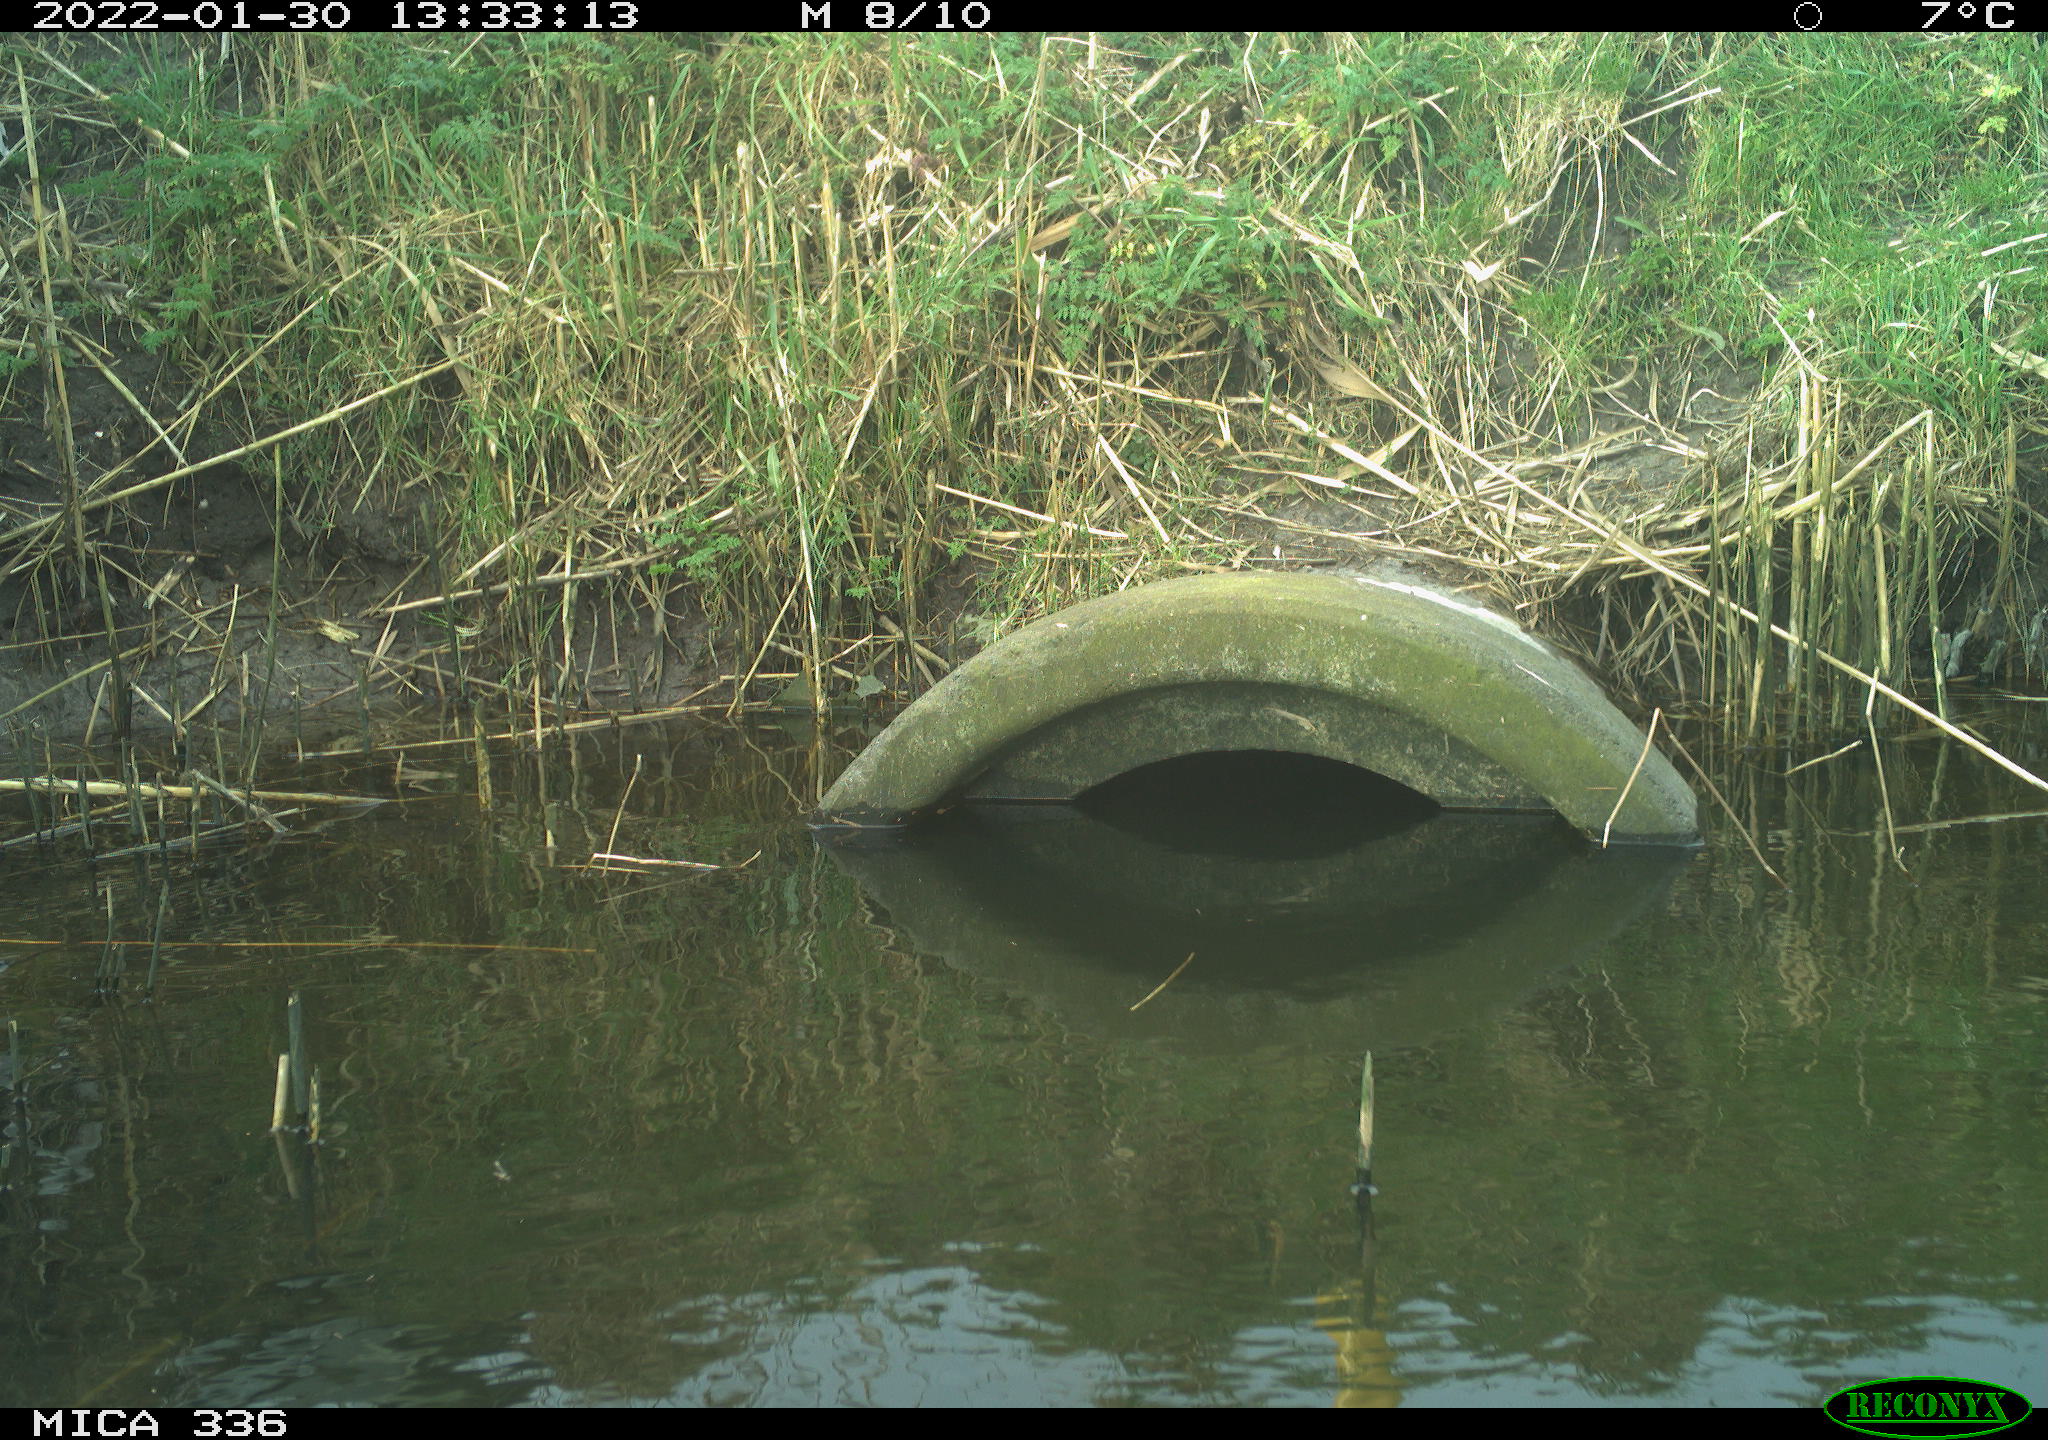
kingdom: Animalia
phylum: Chordata
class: Aves
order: Gruiformes
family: Rallidae
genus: Gallinula
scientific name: Gallinula chloropus
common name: Common moorhen
